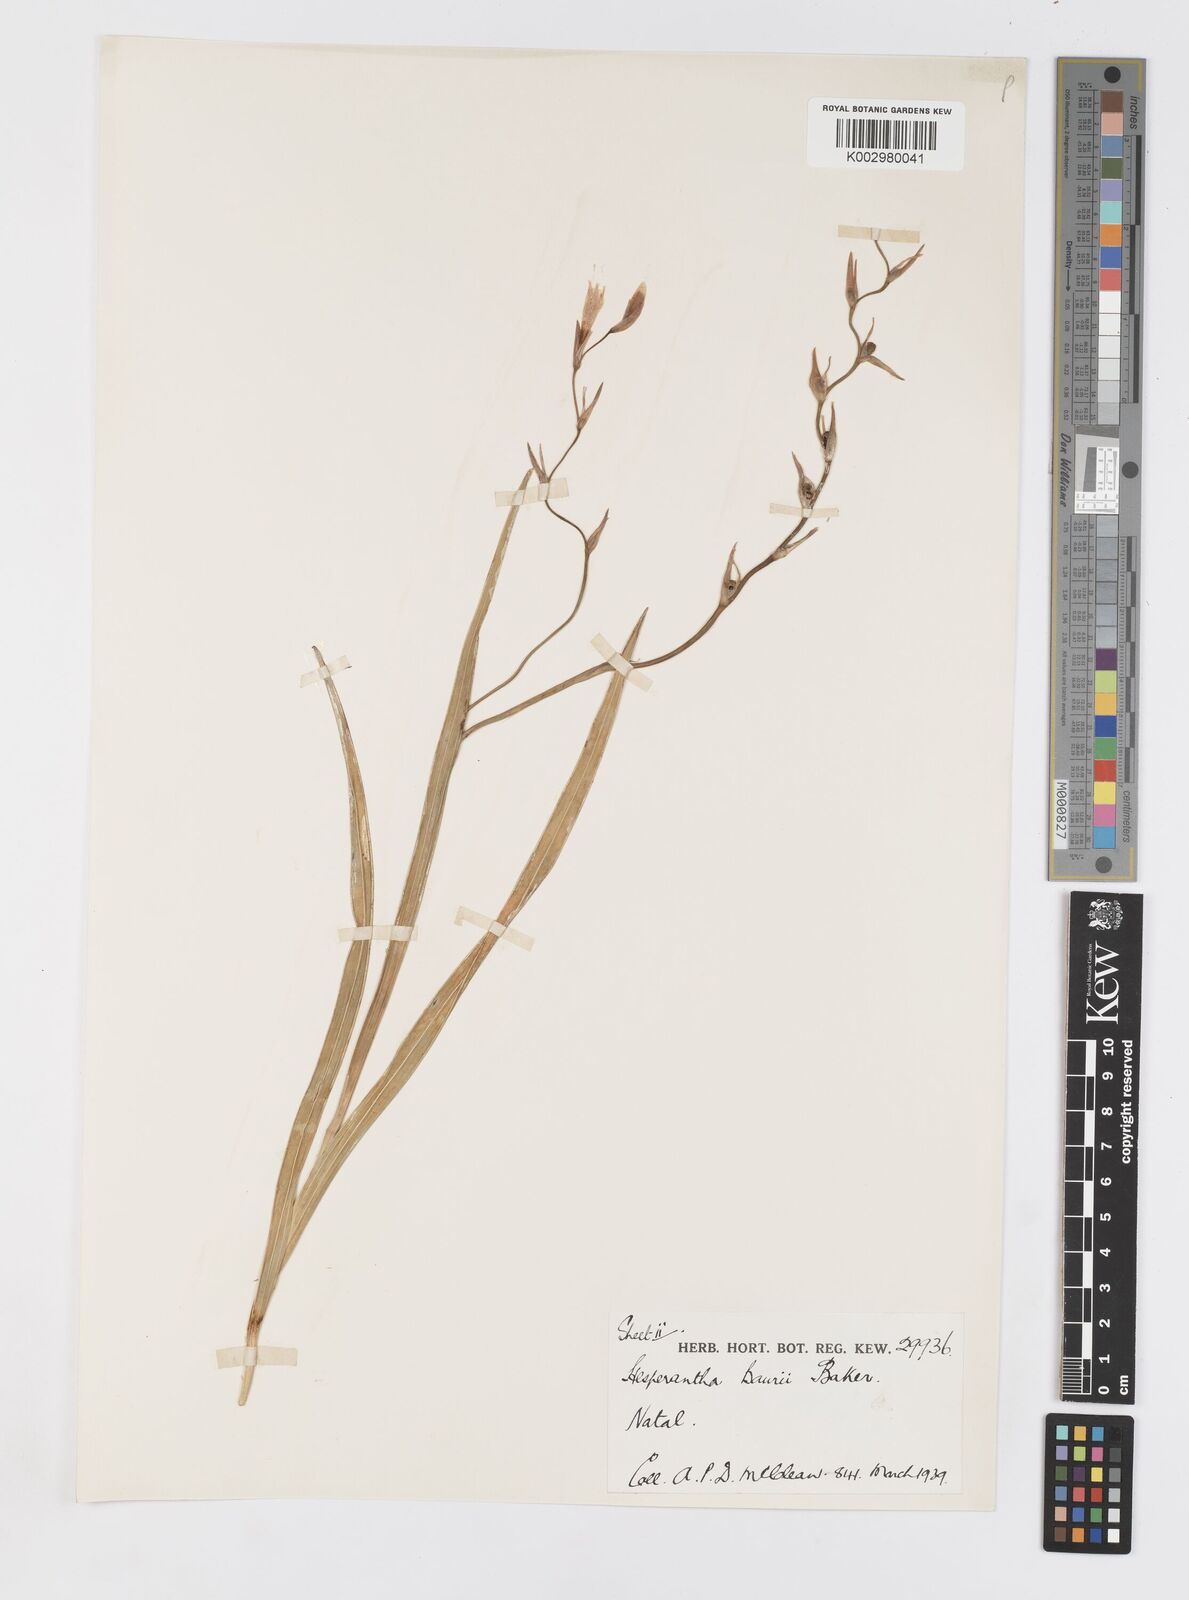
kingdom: Plantae
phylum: Tracheophyta
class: Liliopsida
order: Asparagales
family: Iridaceae
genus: Hesperantha
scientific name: Hesperantha baurii
